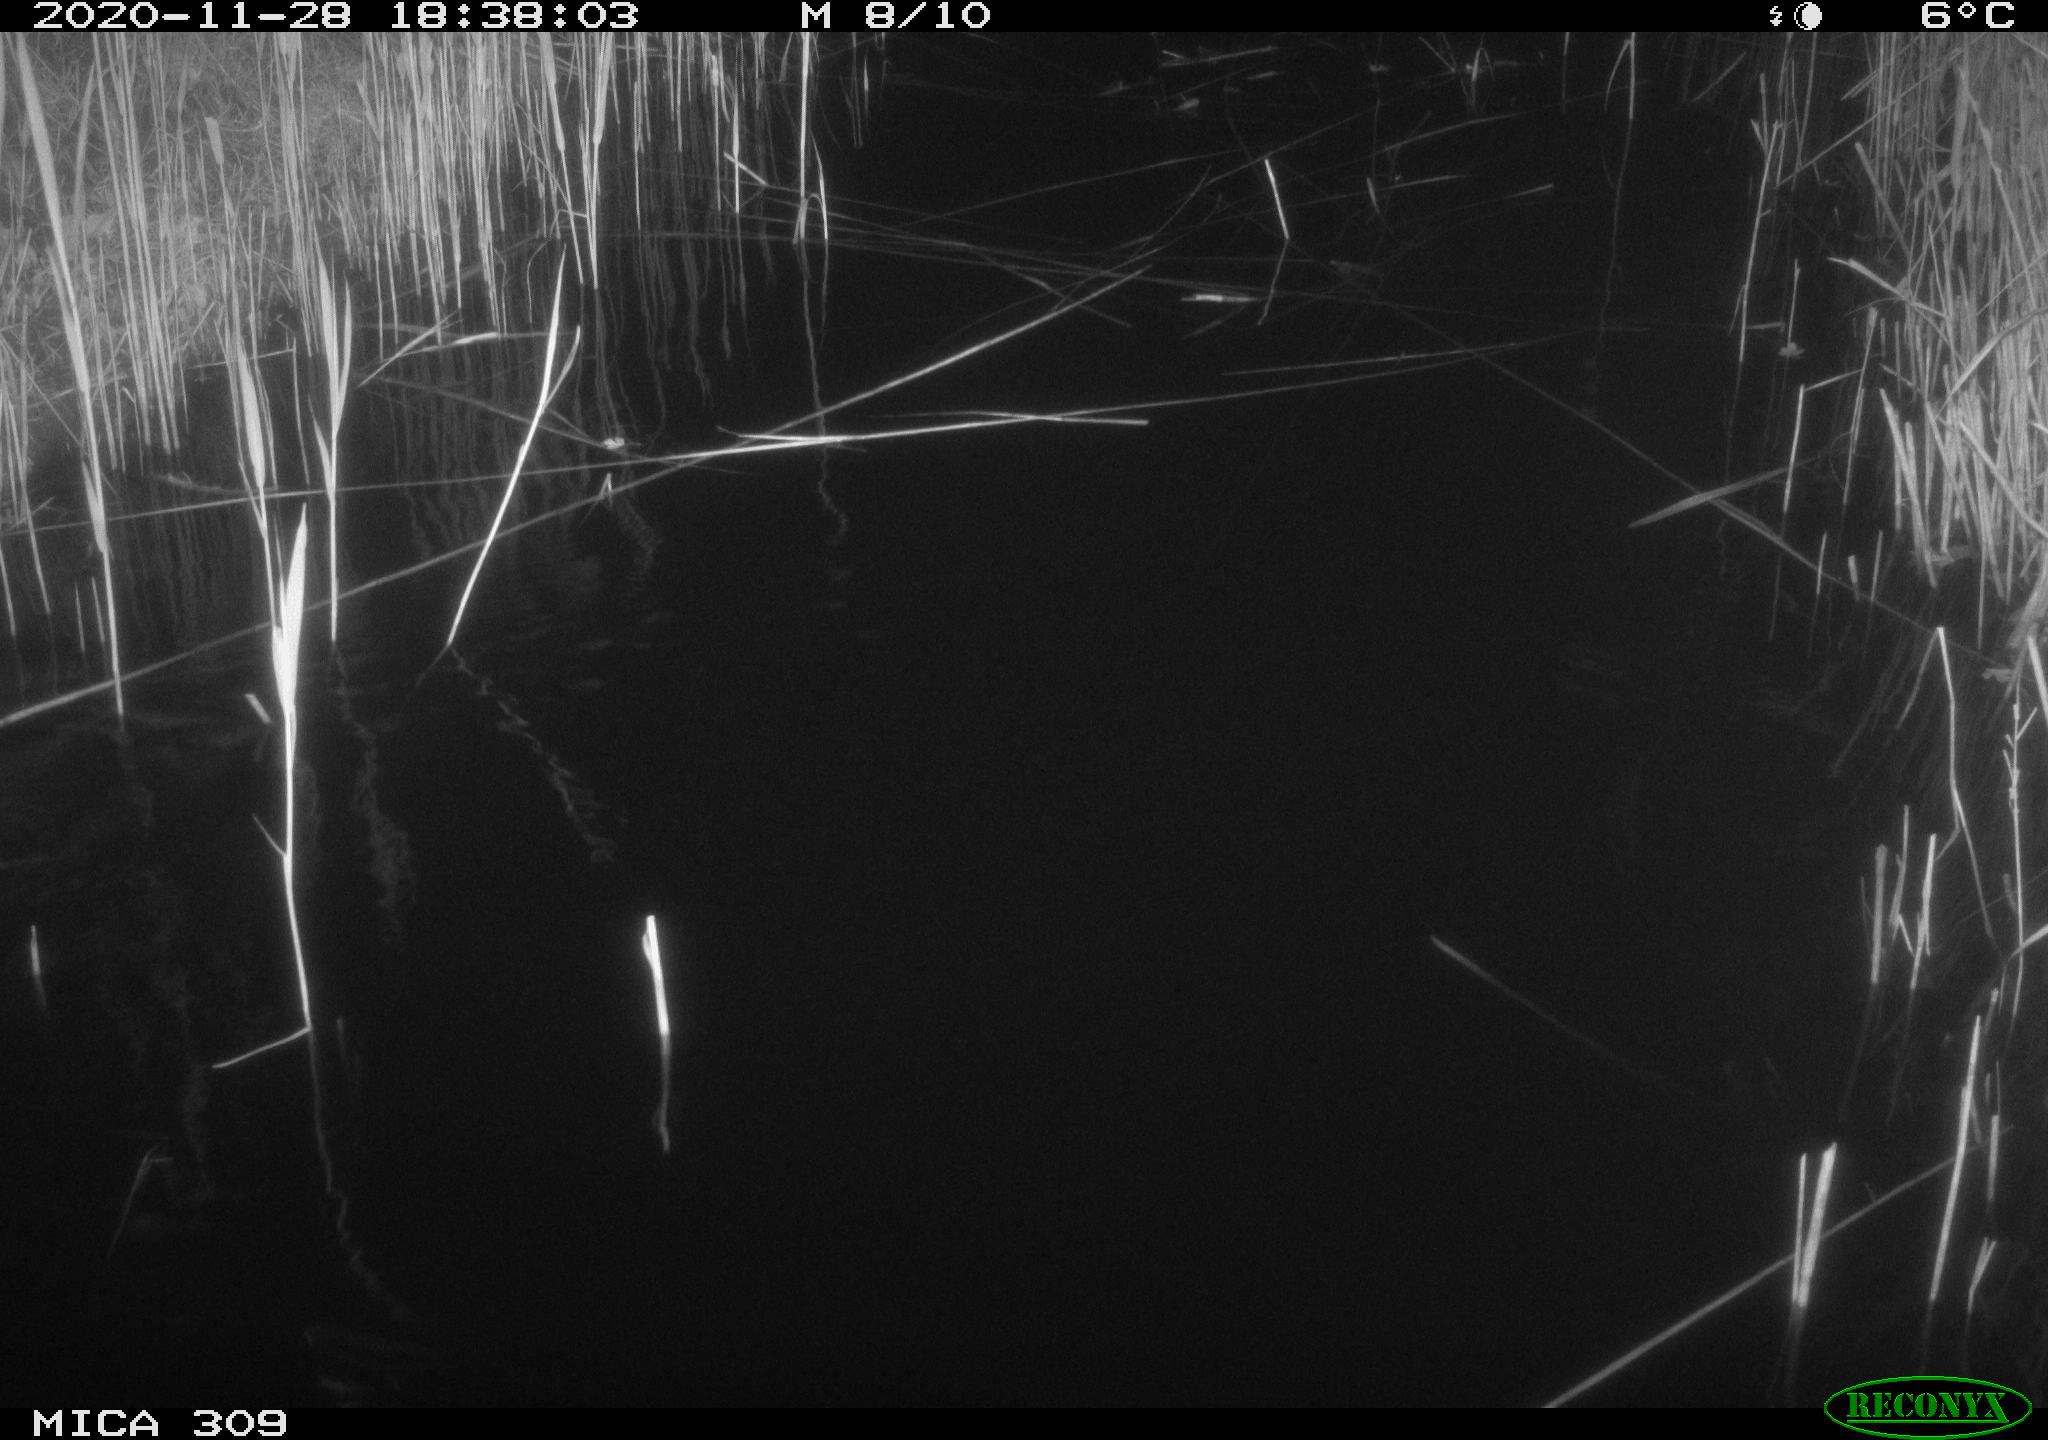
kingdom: Animalia
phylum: Chordata
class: Mammalia
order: Rodentia
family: Muridae
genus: Rattus
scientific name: Rattus norvegicus
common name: Brown rat
